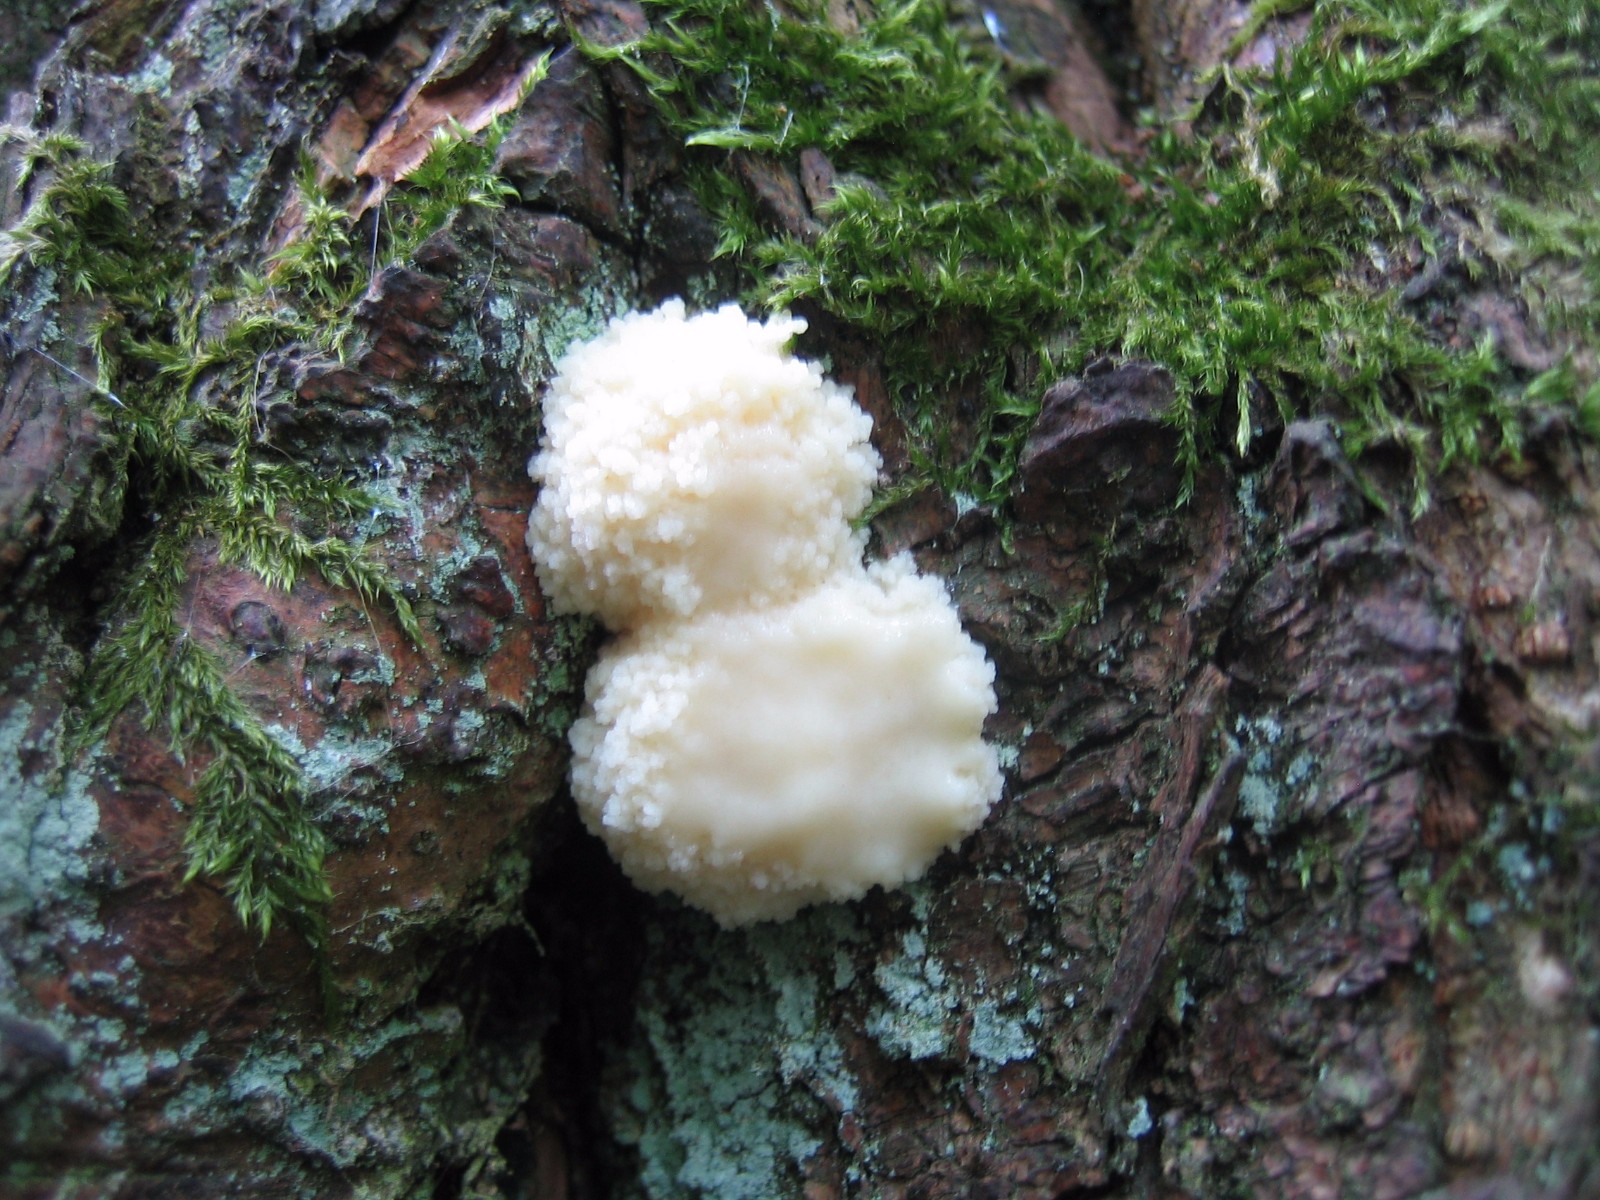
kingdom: Protozoa
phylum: Mycetozoa
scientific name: Mycetozoa
